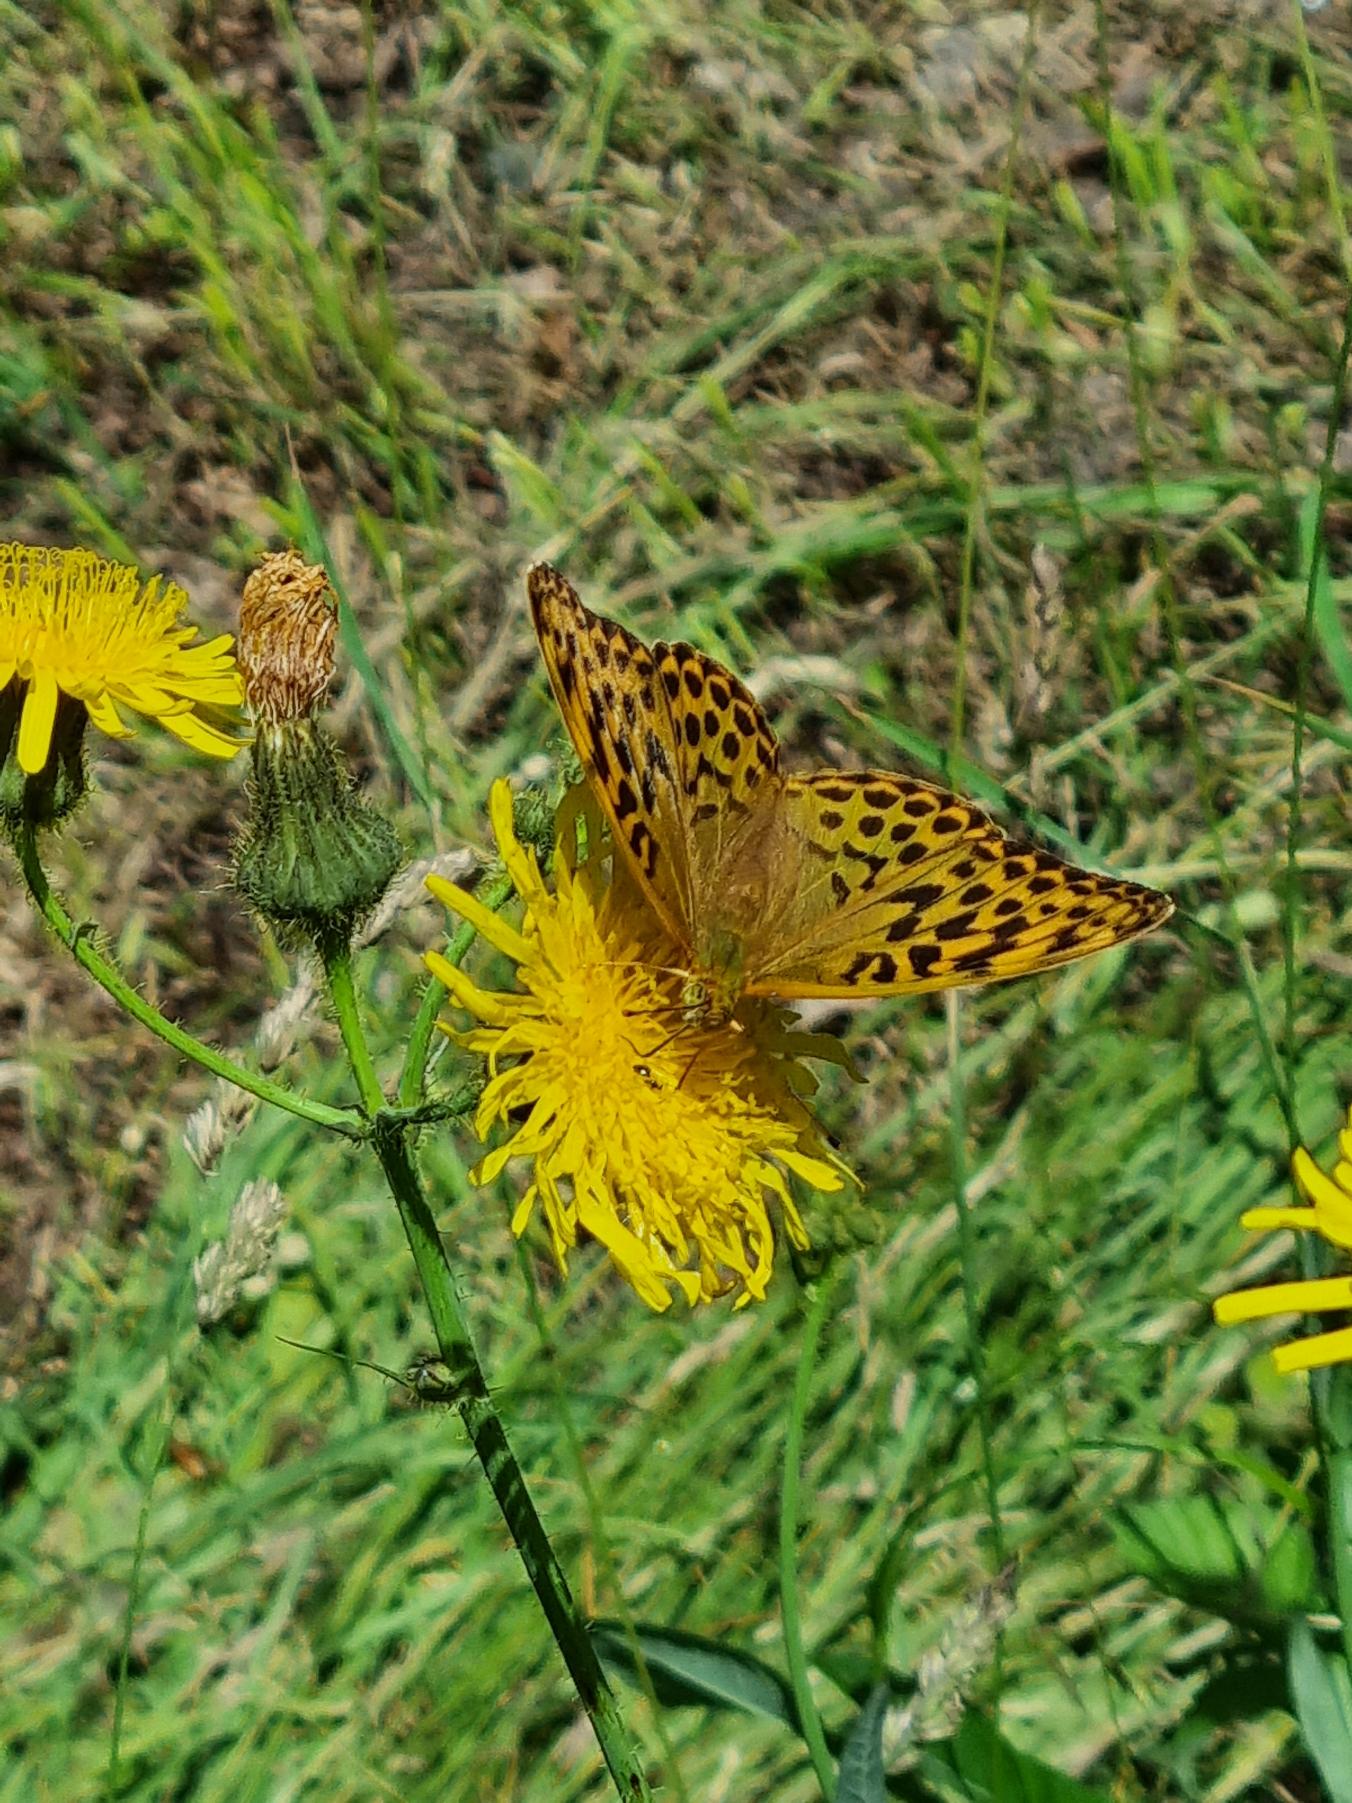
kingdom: Animalia
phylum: Arthropoda
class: Insecta
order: Lepidoptera
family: Nymphalidae
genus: Argynnis
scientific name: Argynnis paphia
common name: Kejserkåbe
